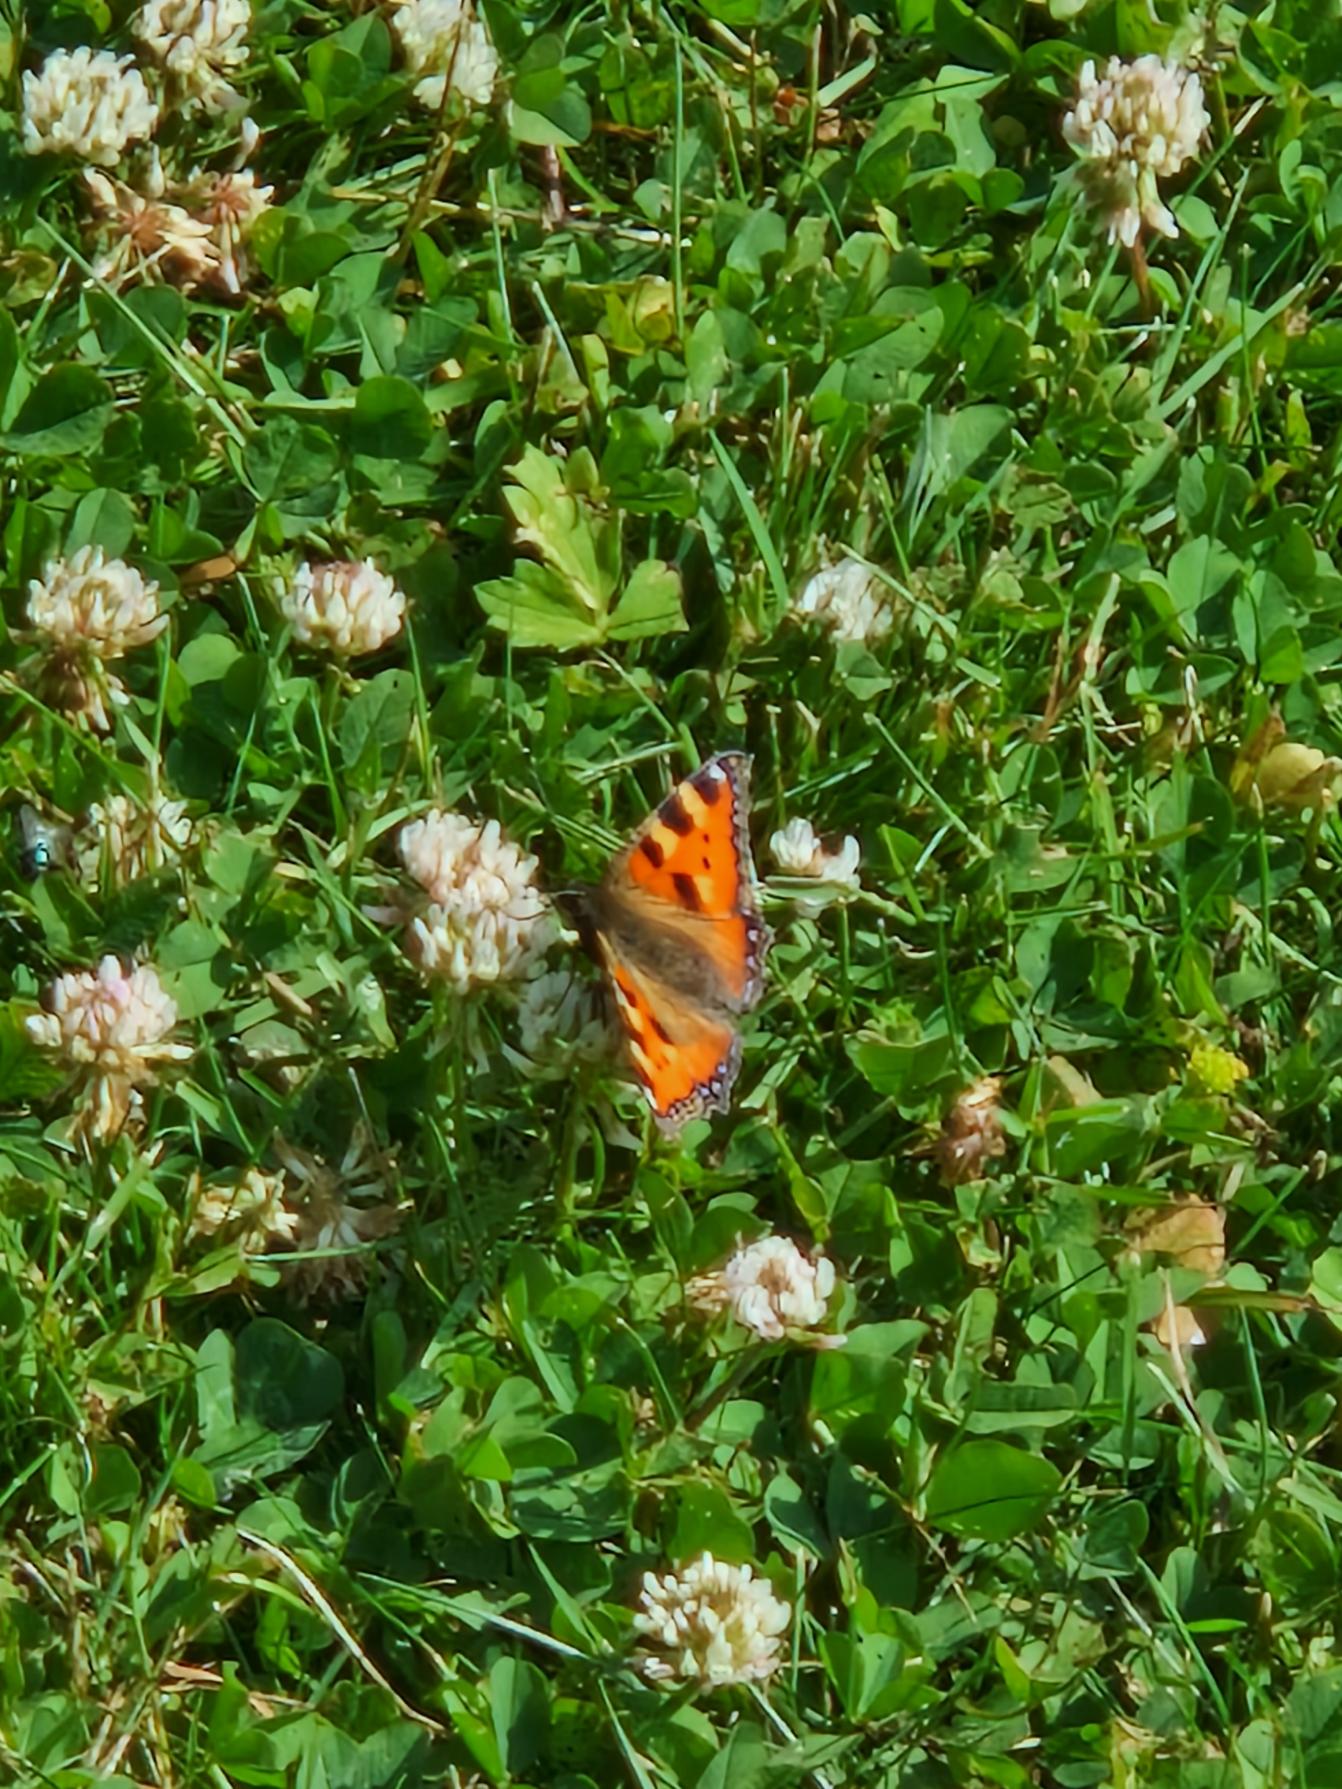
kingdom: Animalia
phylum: Arthropoda
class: Insecta
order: Lepidoptera
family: Nymphalidae
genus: Aglais
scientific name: Aglais urticae
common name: Nældens takvinge
